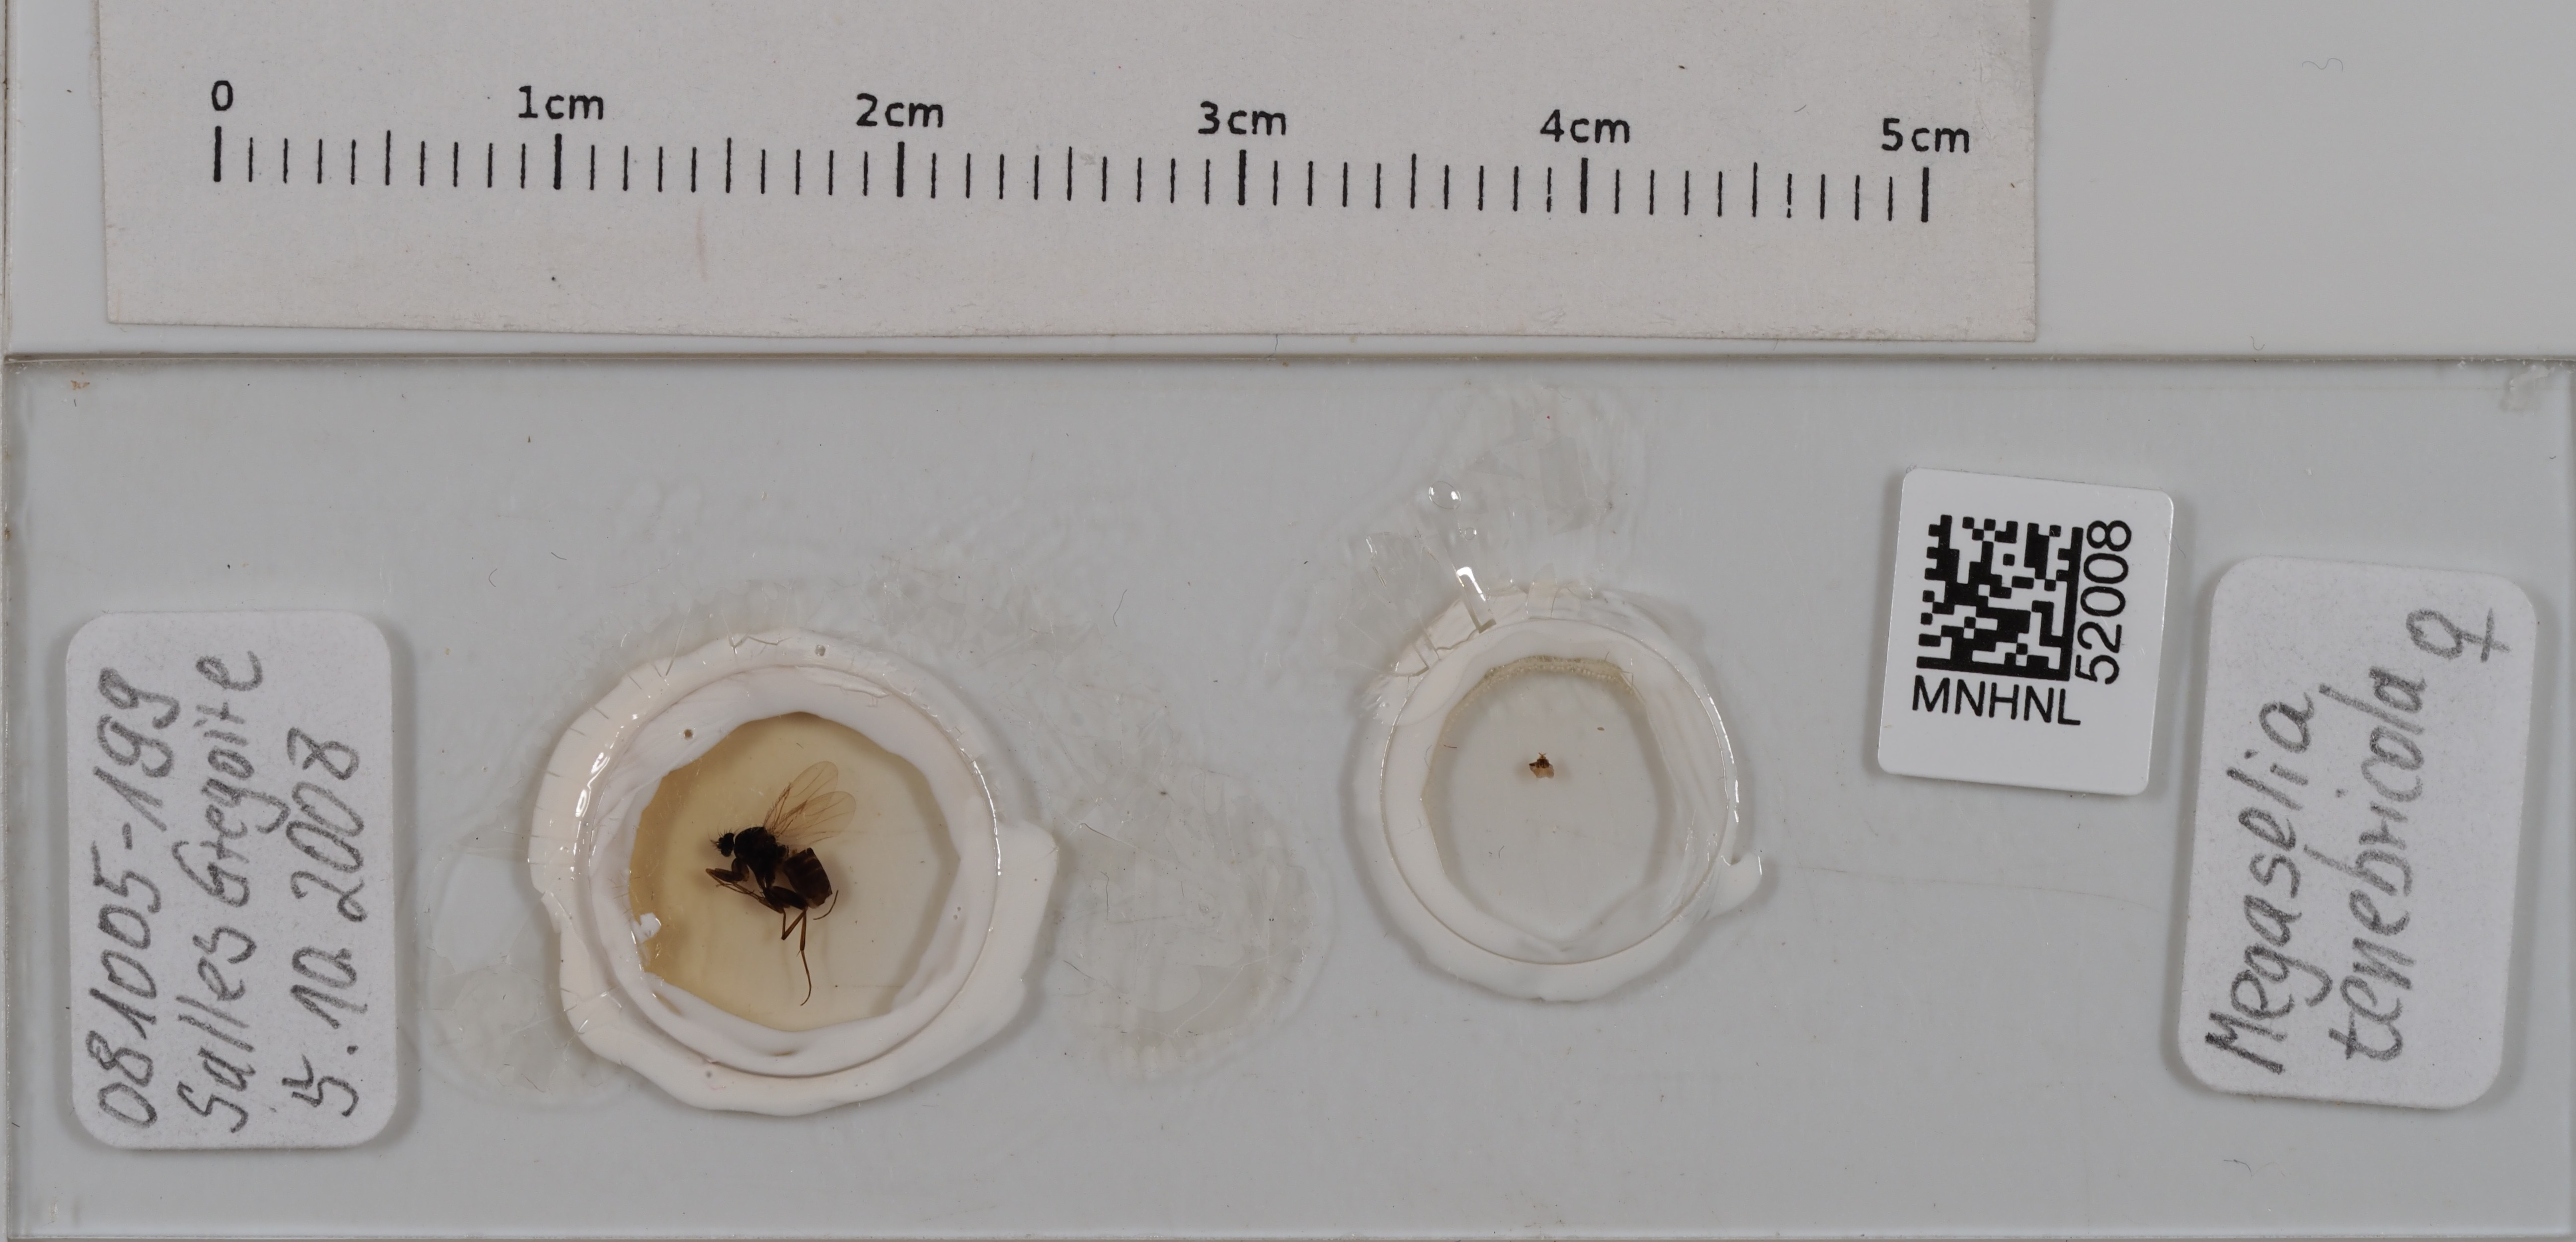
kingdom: Animalia
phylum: Arthropoda
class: Insecta
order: Diptera
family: Phoridae
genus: Megaselia
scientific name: Megaselia tenebricola
